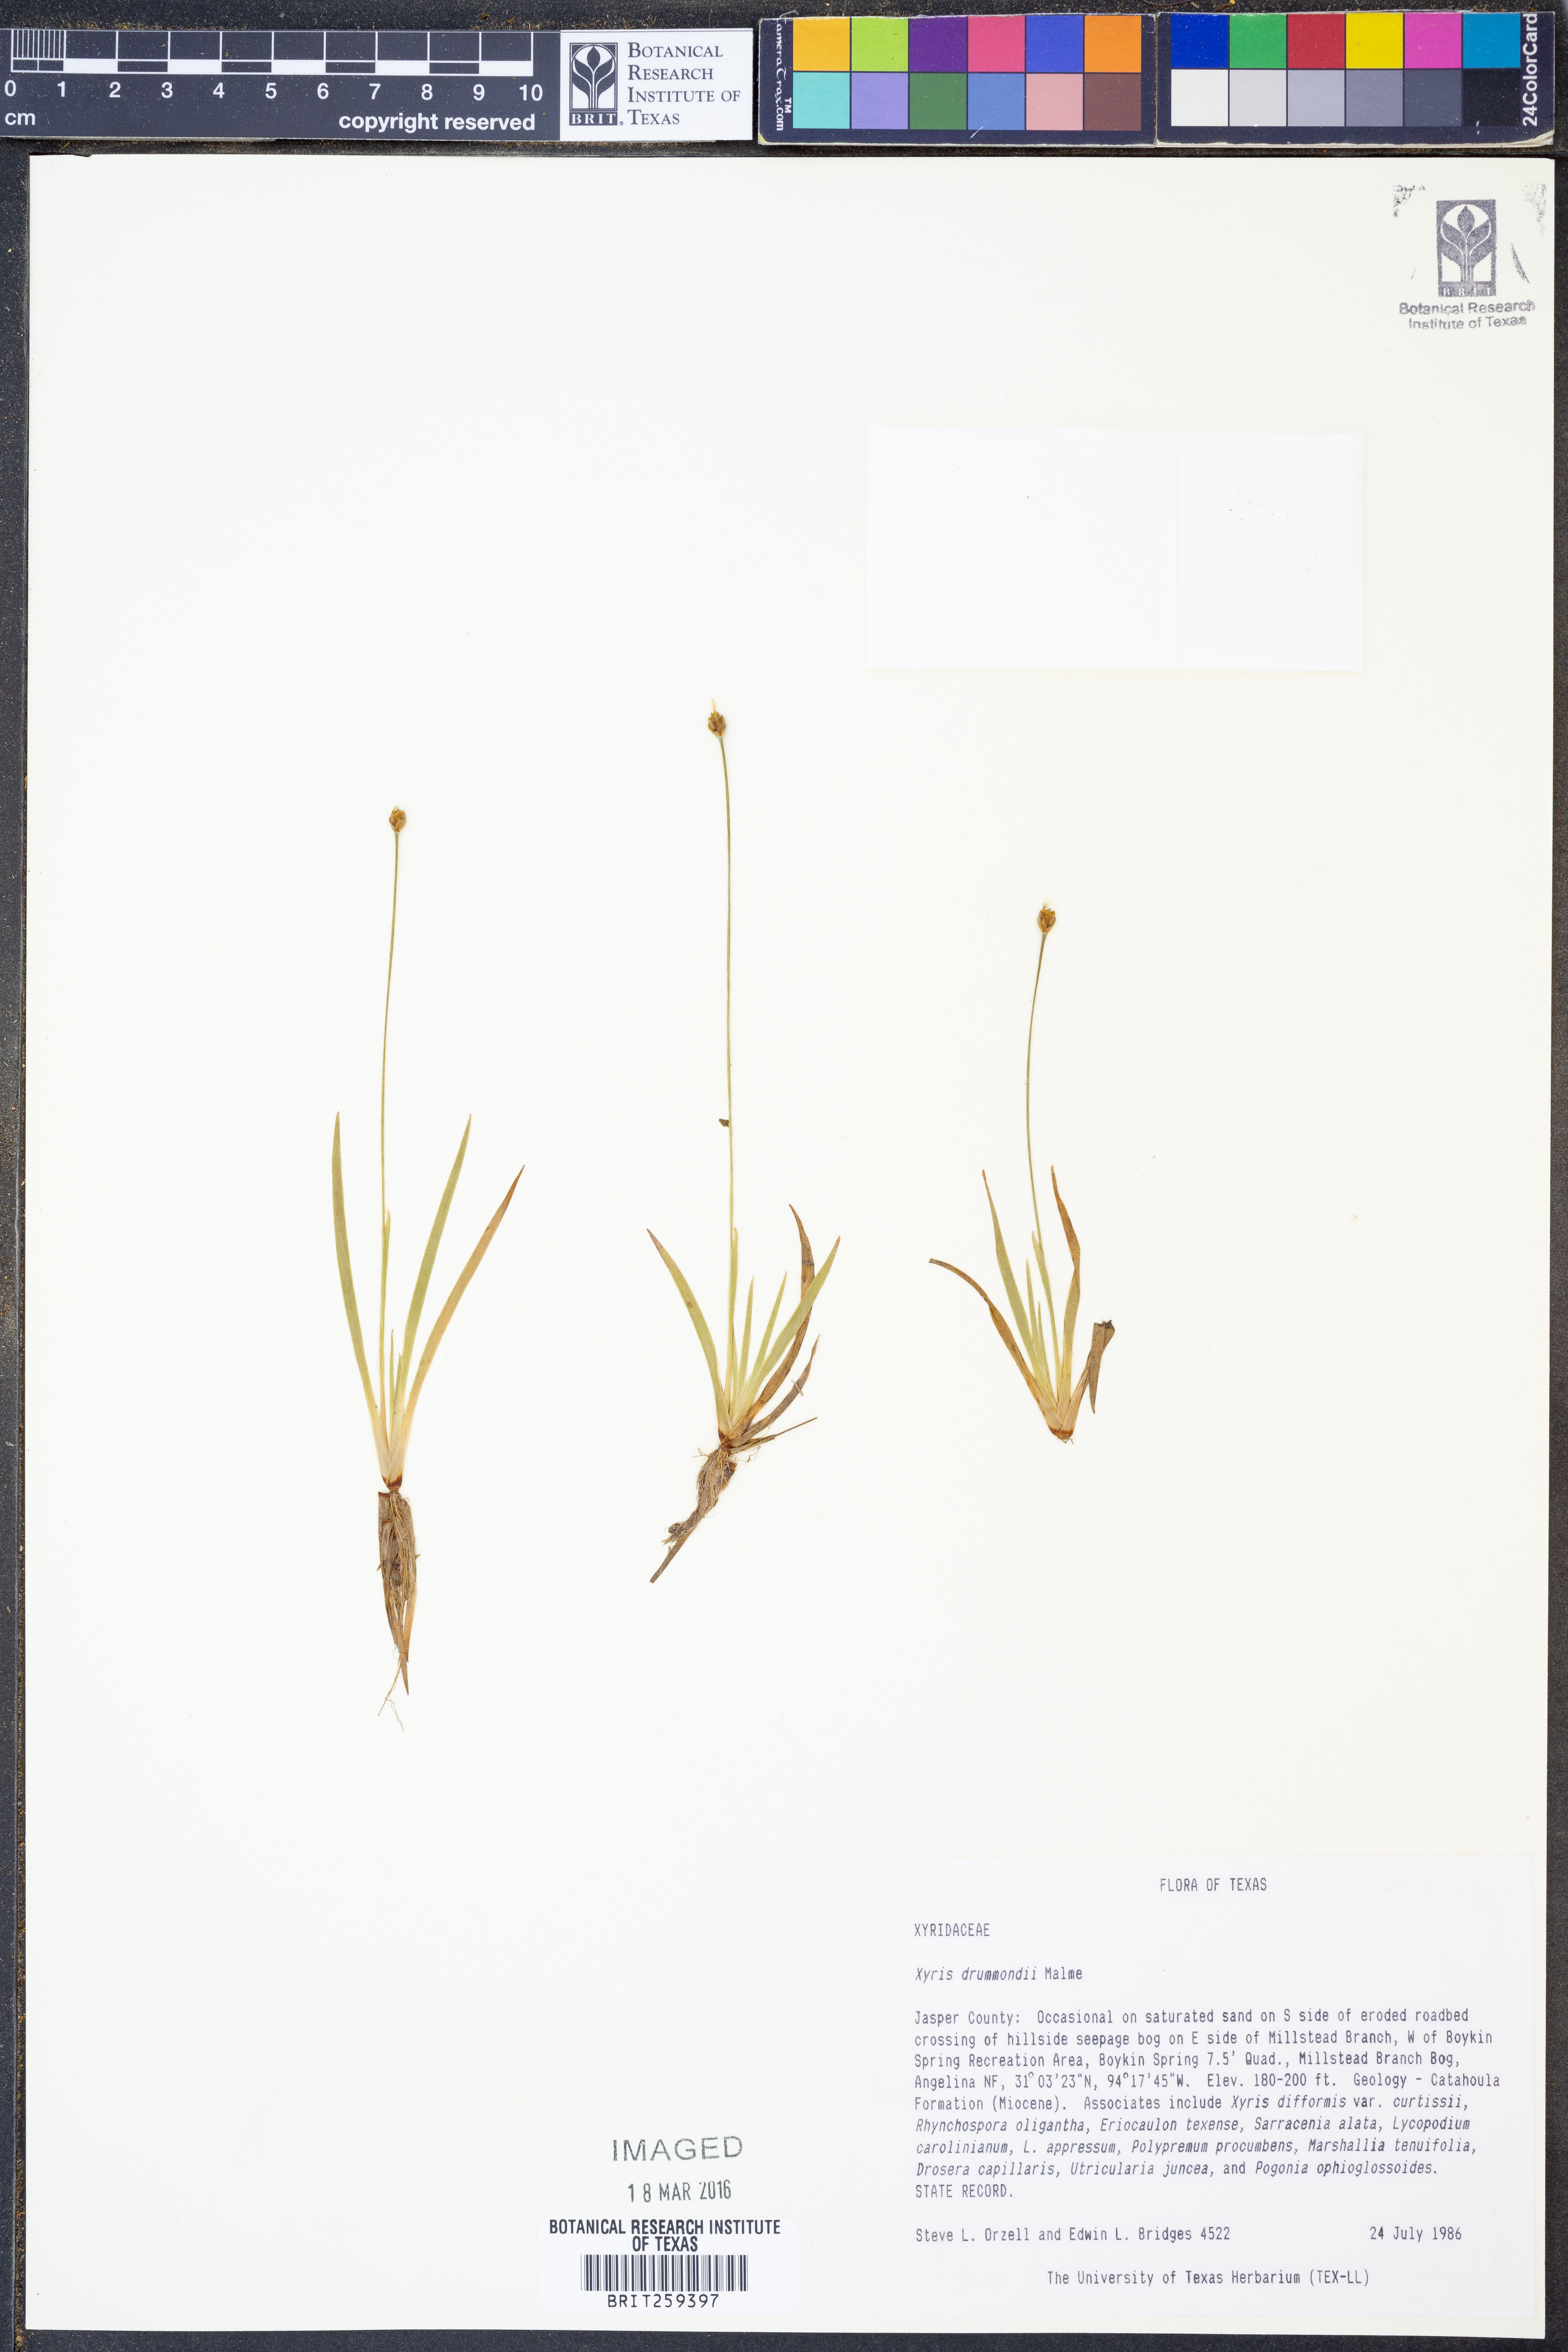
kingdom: Plantae
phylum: Tracheophyta
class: Liliopsida
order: Poales
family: Xyridaceae
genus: Xyris
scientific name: Xyris drummondii
